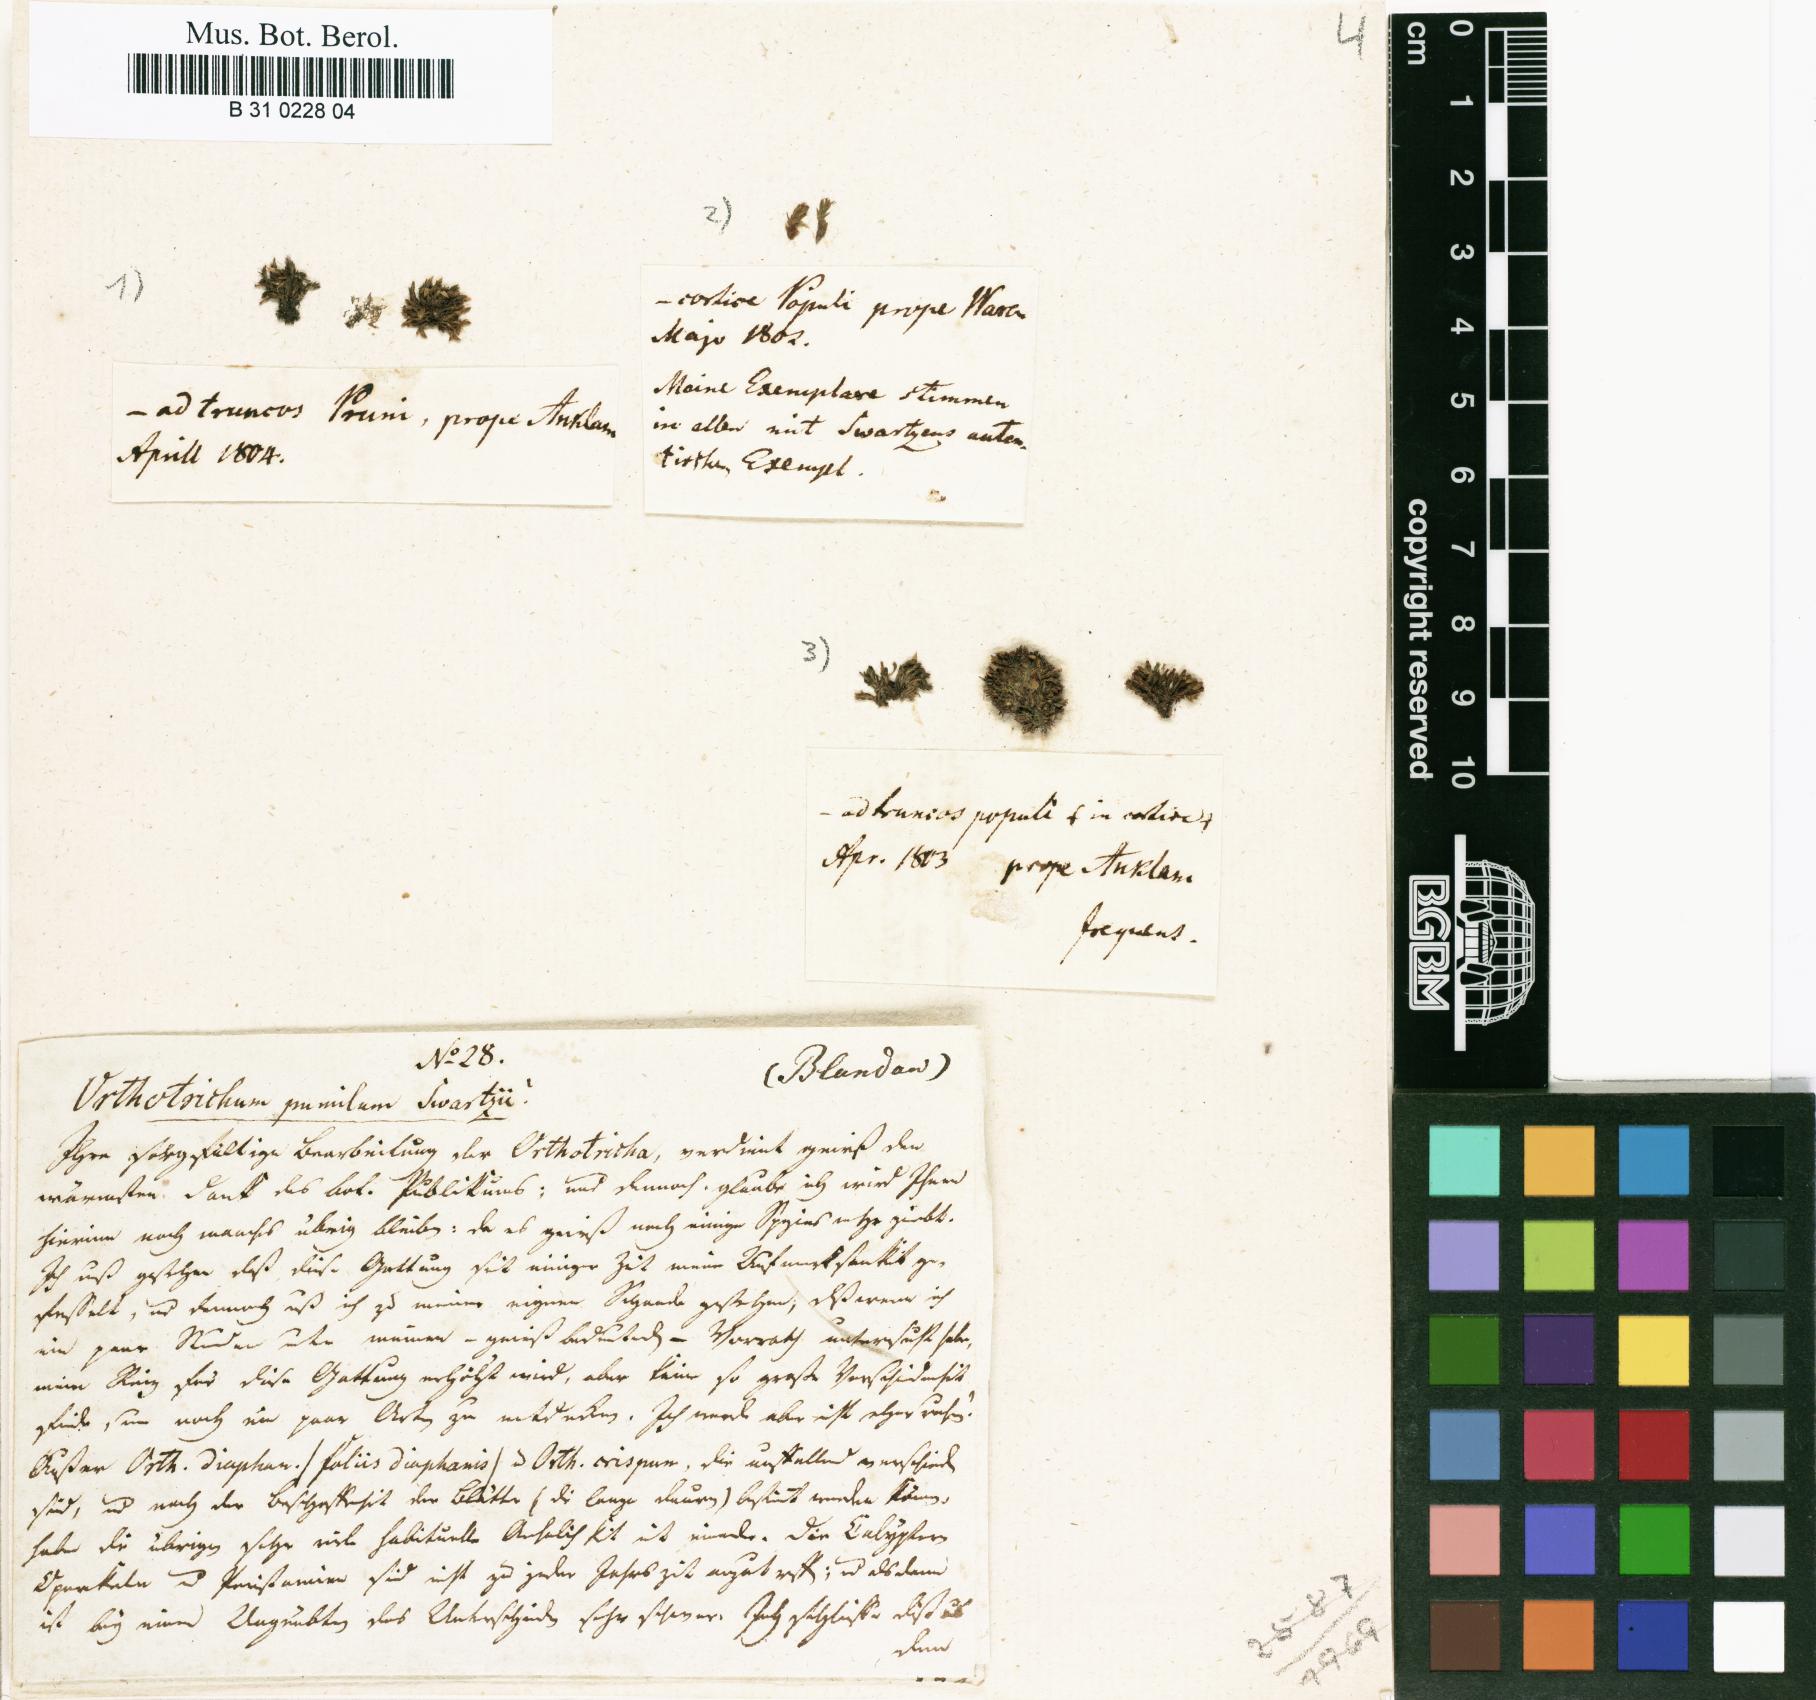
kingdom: Plantae
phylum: Bryophyta
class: Bryopsida
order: Orthotrichales
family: Orthotrichaceae
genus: Orthotrichum
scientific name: Orthotrichum pumilum
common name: Dwarf bristle moss
